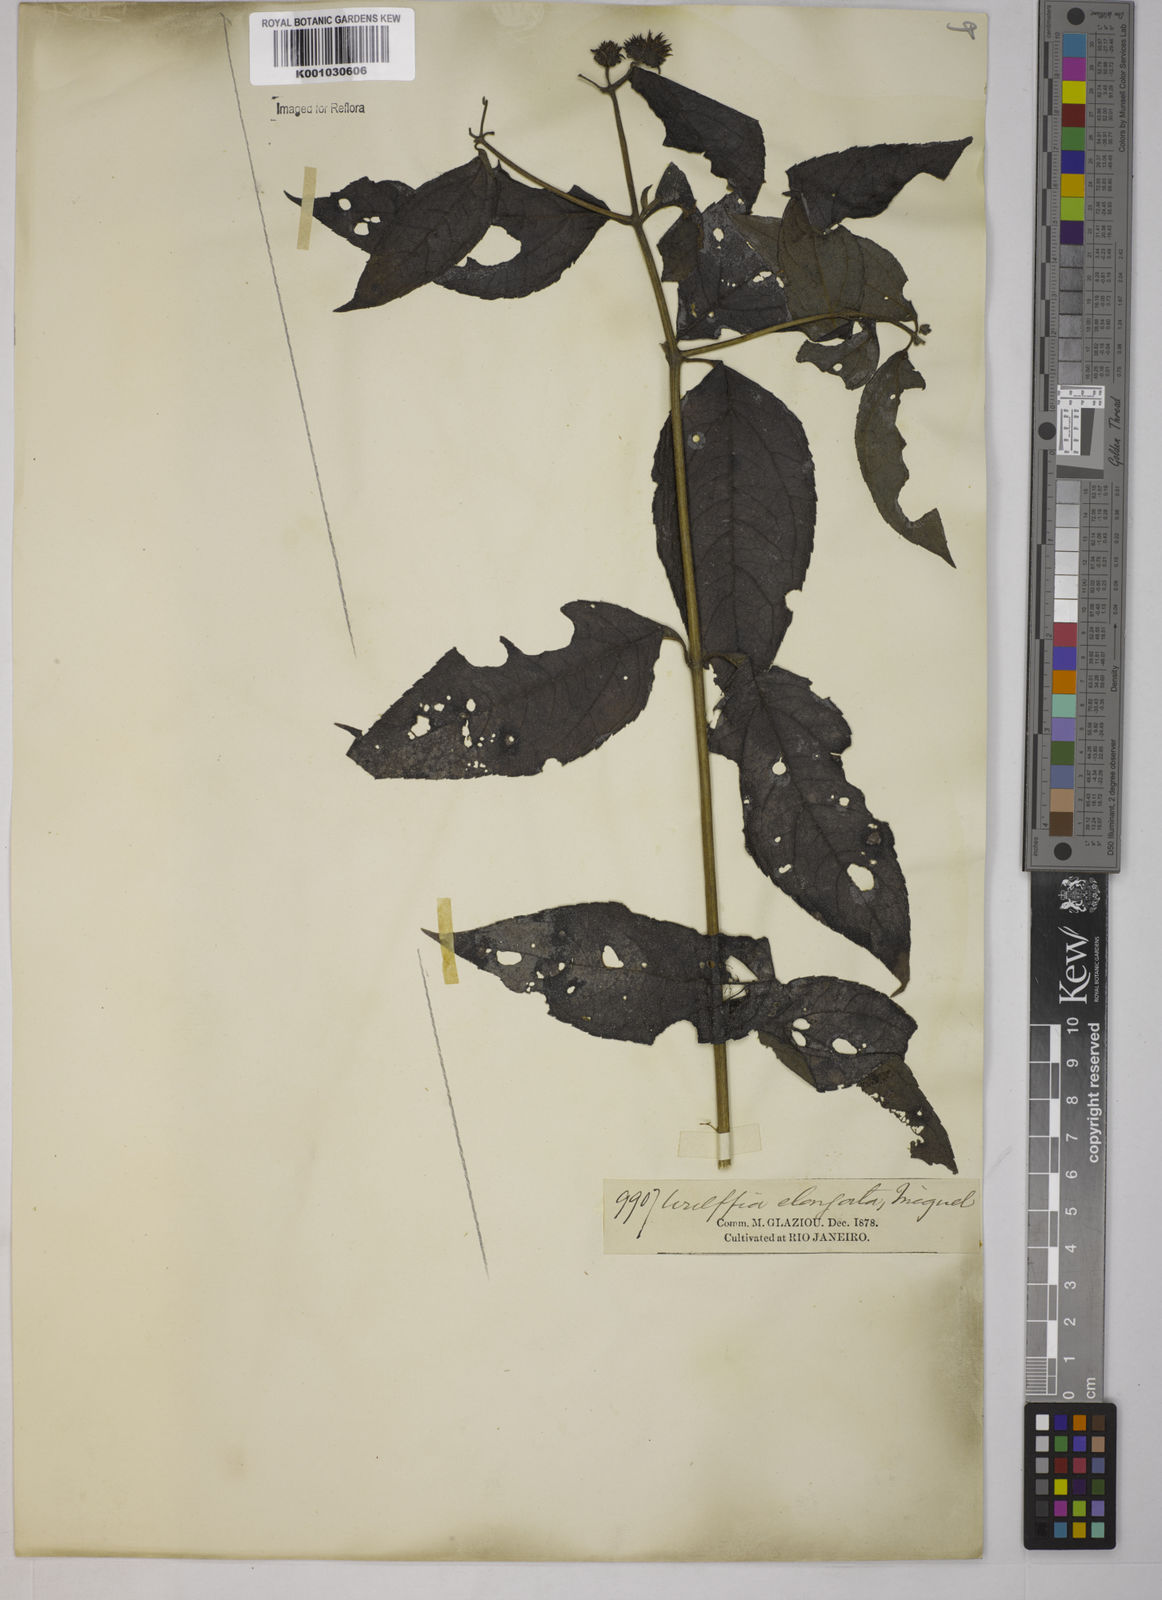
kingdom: Plantae
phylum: Tracheophyta
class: Magnoliopsida
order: Asterales
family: Asteraceae
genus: Tilesia
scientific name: Tilesia baccata
